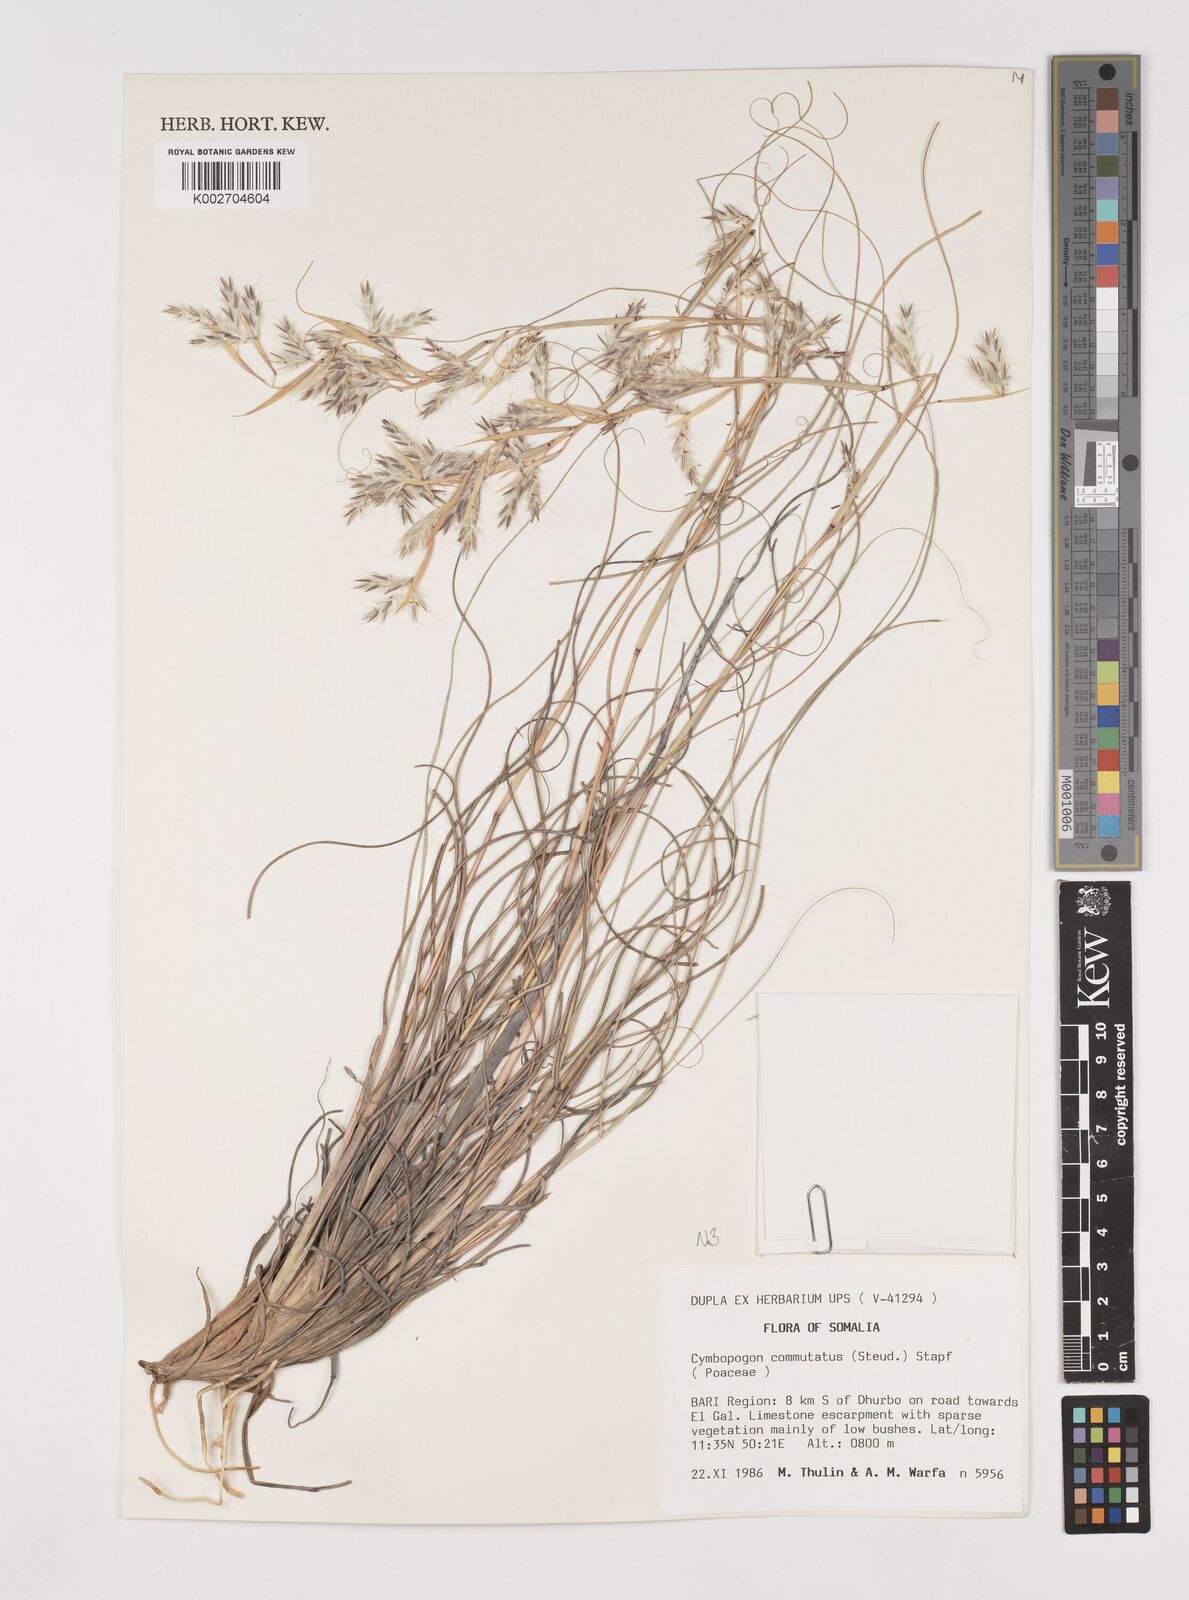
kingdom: Plantae
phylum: Tracheophyta
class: Liliopsida
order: Poales
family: Poaceae
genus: Cymbopogon
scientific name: Cymbopogon commutatus
